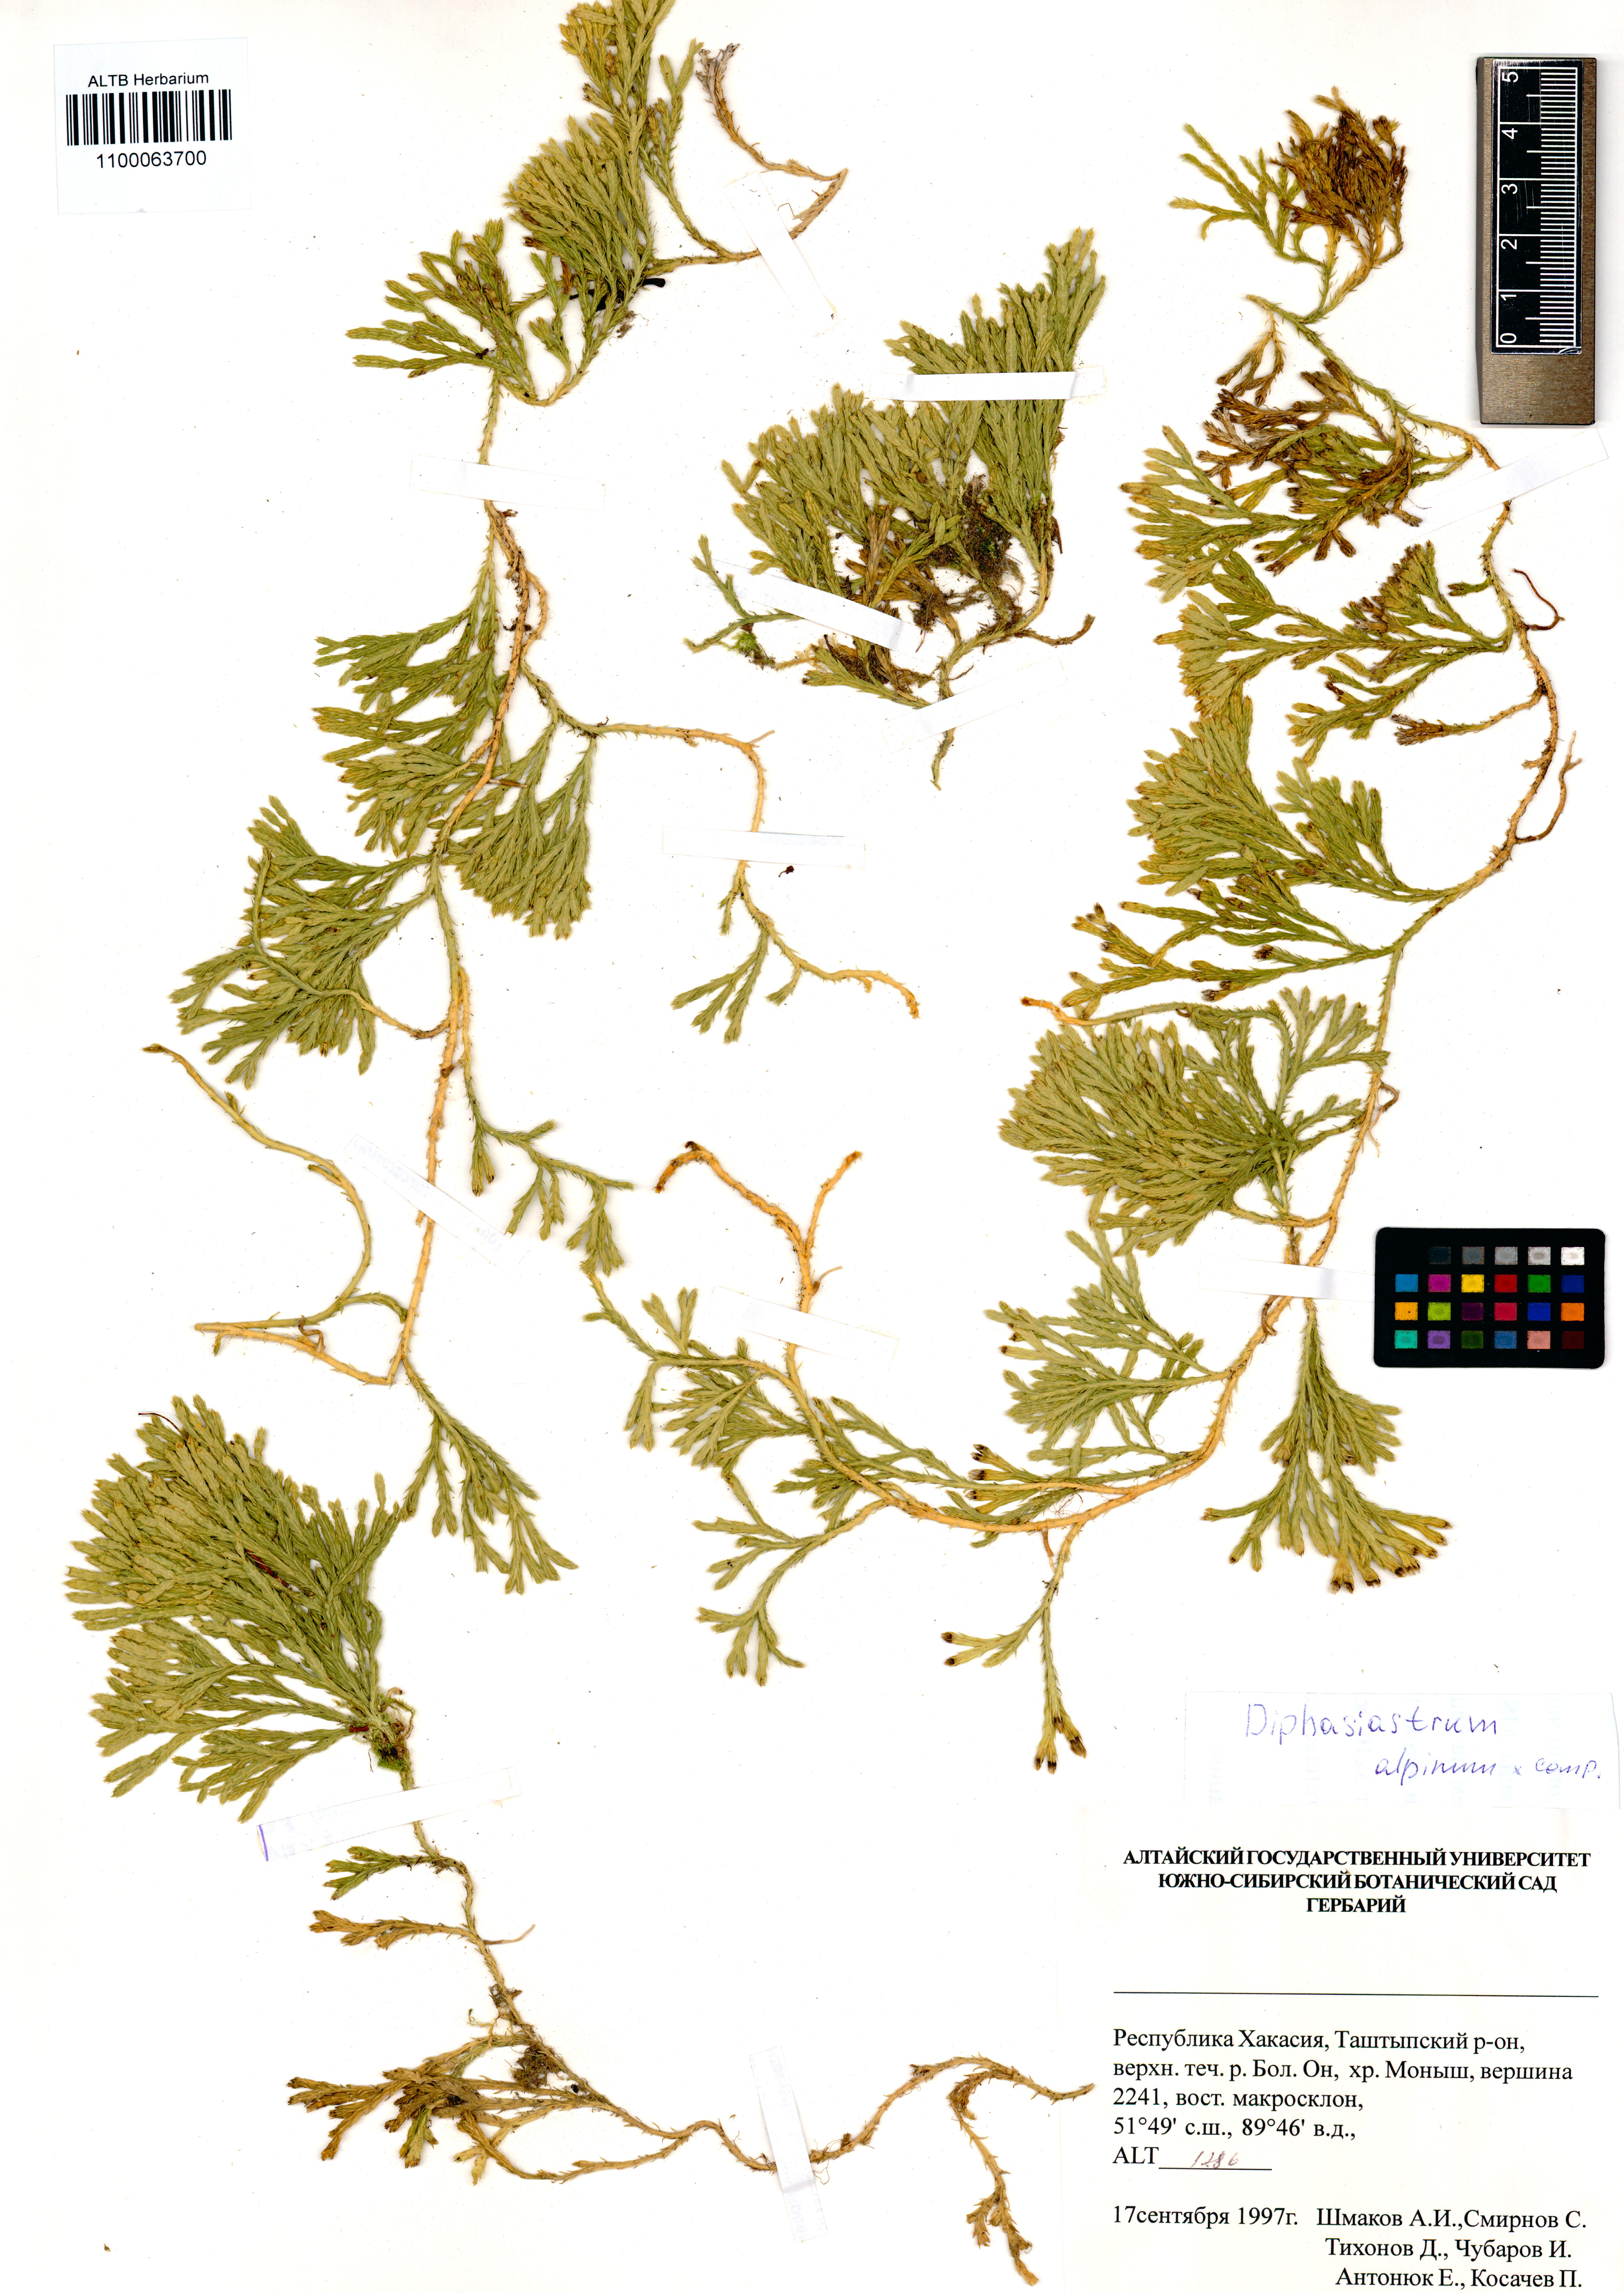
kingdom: Plantae
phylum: Tracheophyta
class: Lycopodiopsida
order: Lycopodiales
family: Lycopodiaceae
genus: Diphasiastrum
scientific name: Diphasiastrum alpinum
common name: Alpine clubmoss
